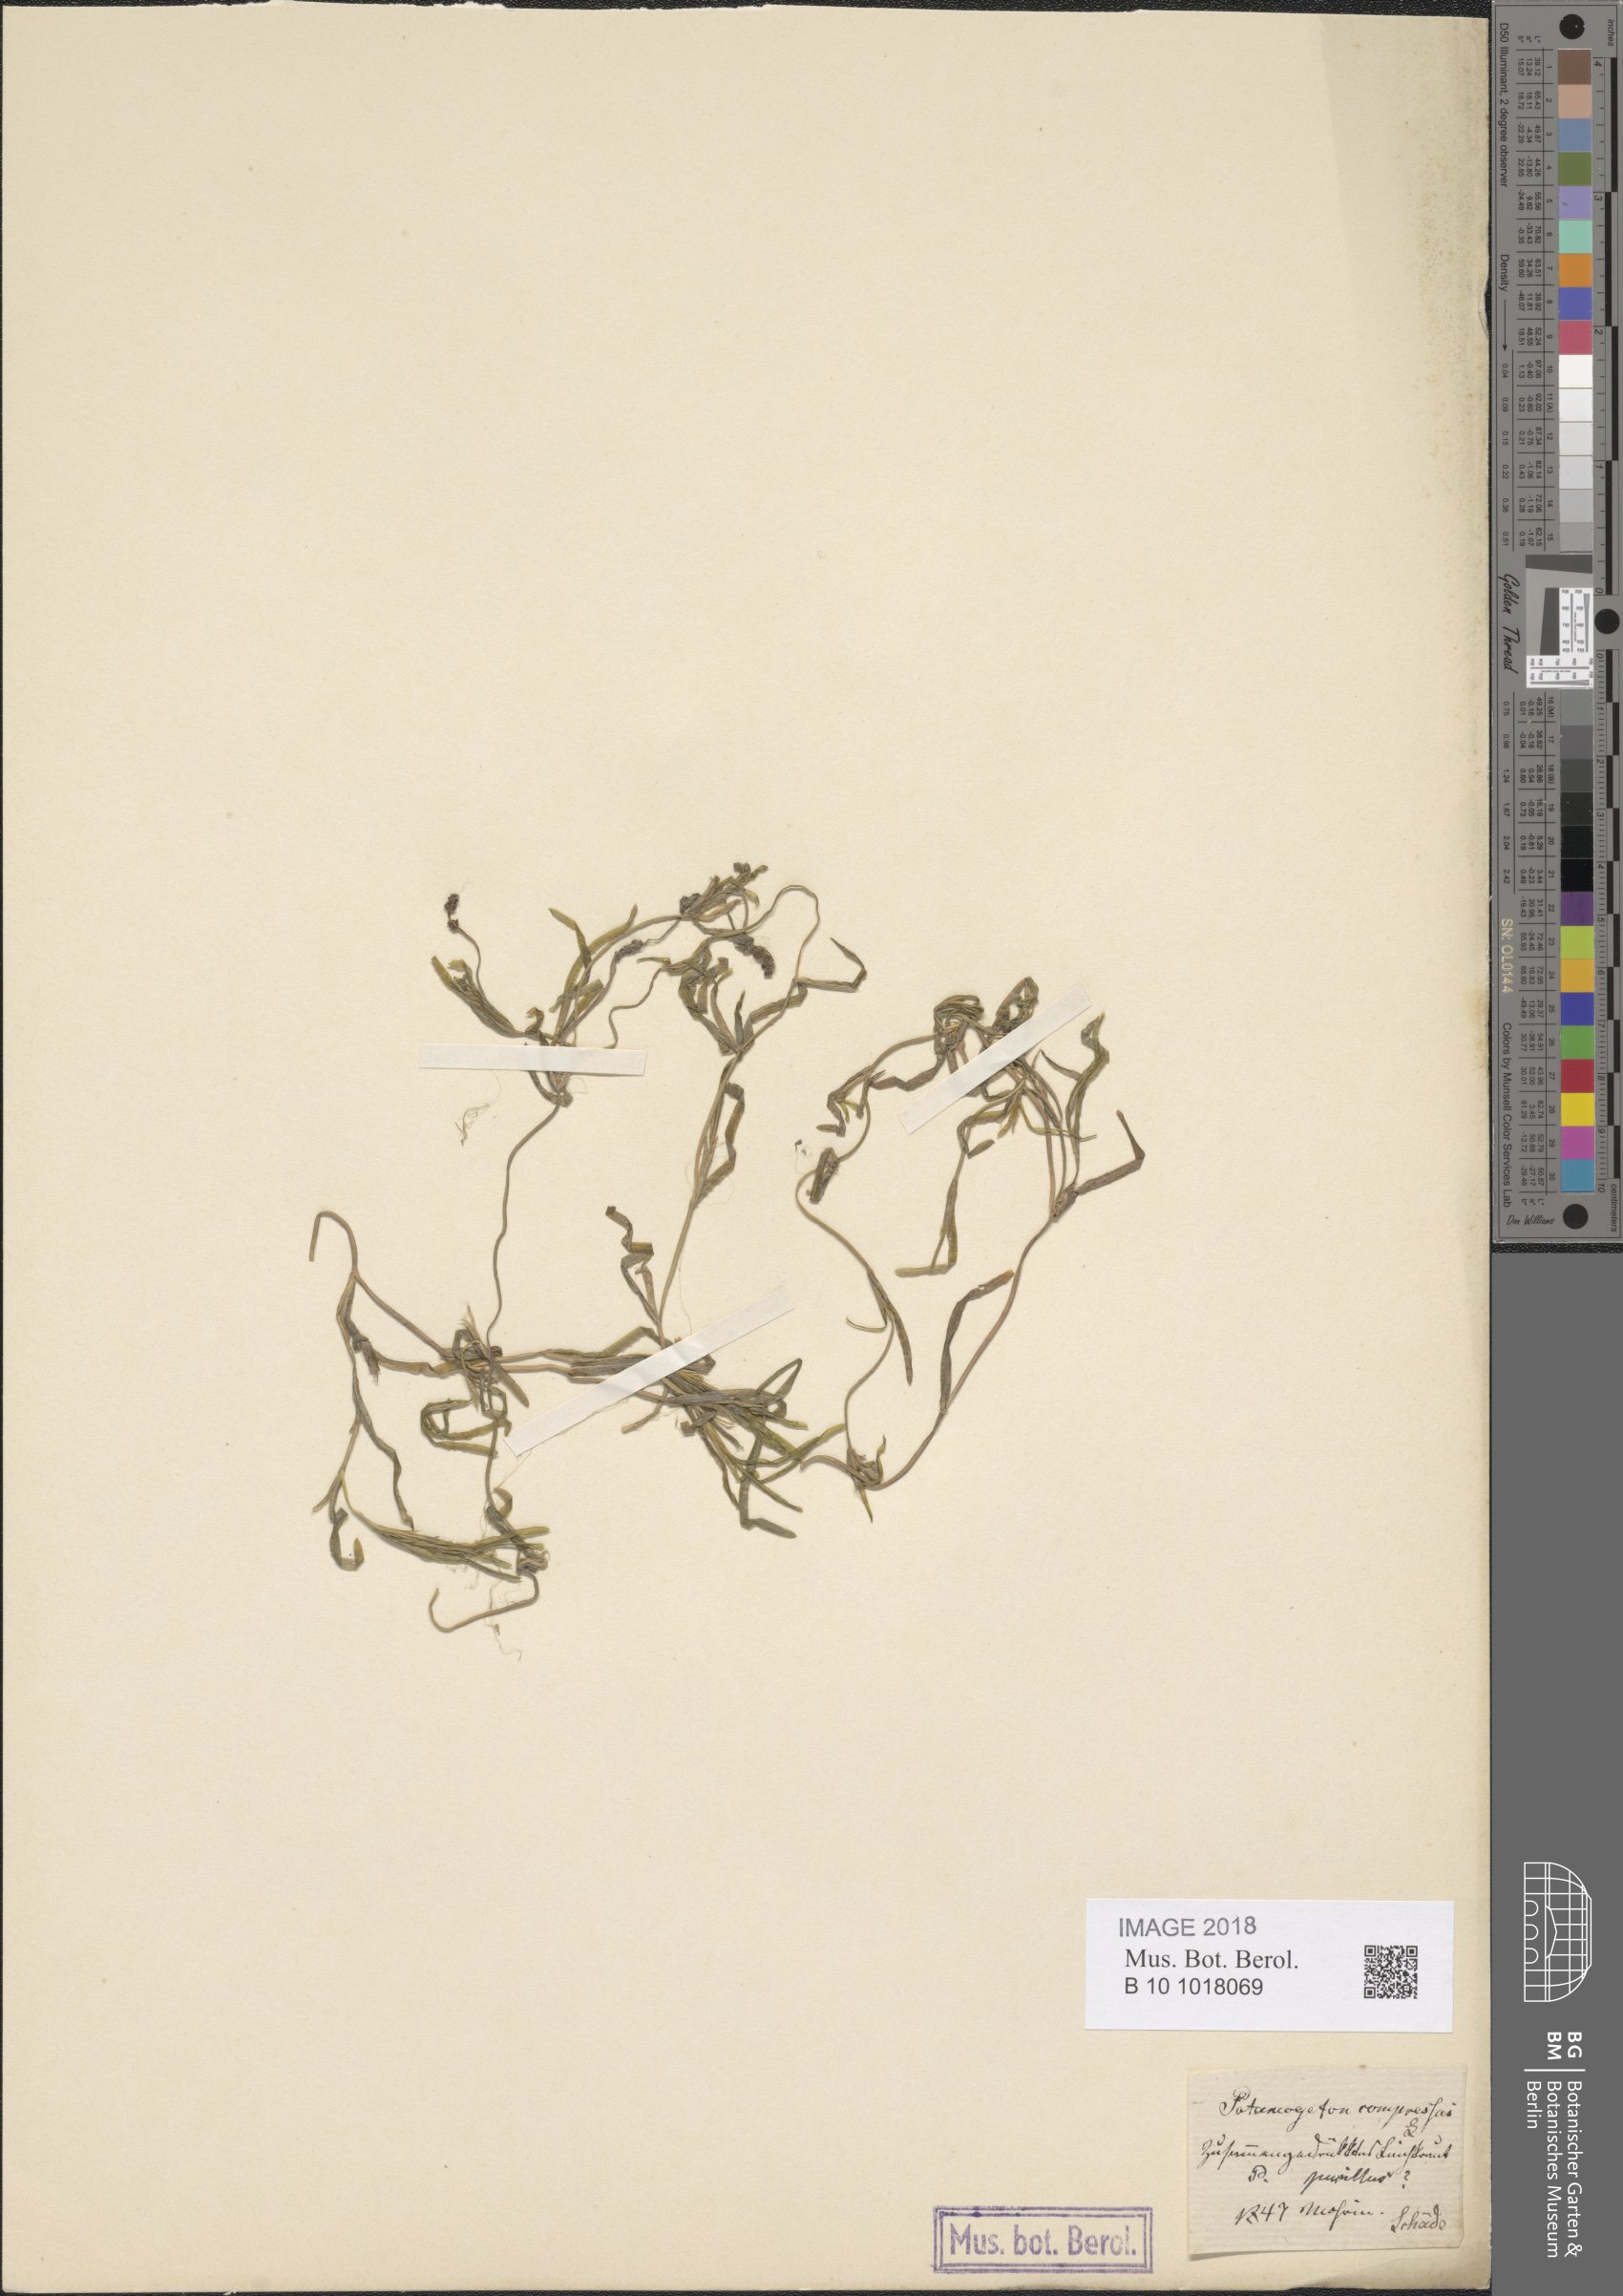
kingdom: Plantae
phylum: Tracheophyta
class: Liliopsida
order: Alismatales
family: Potamogetonaceae
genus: Potamogeton
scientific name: Potamogeton friesii
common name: Flat-stalked pondweed
